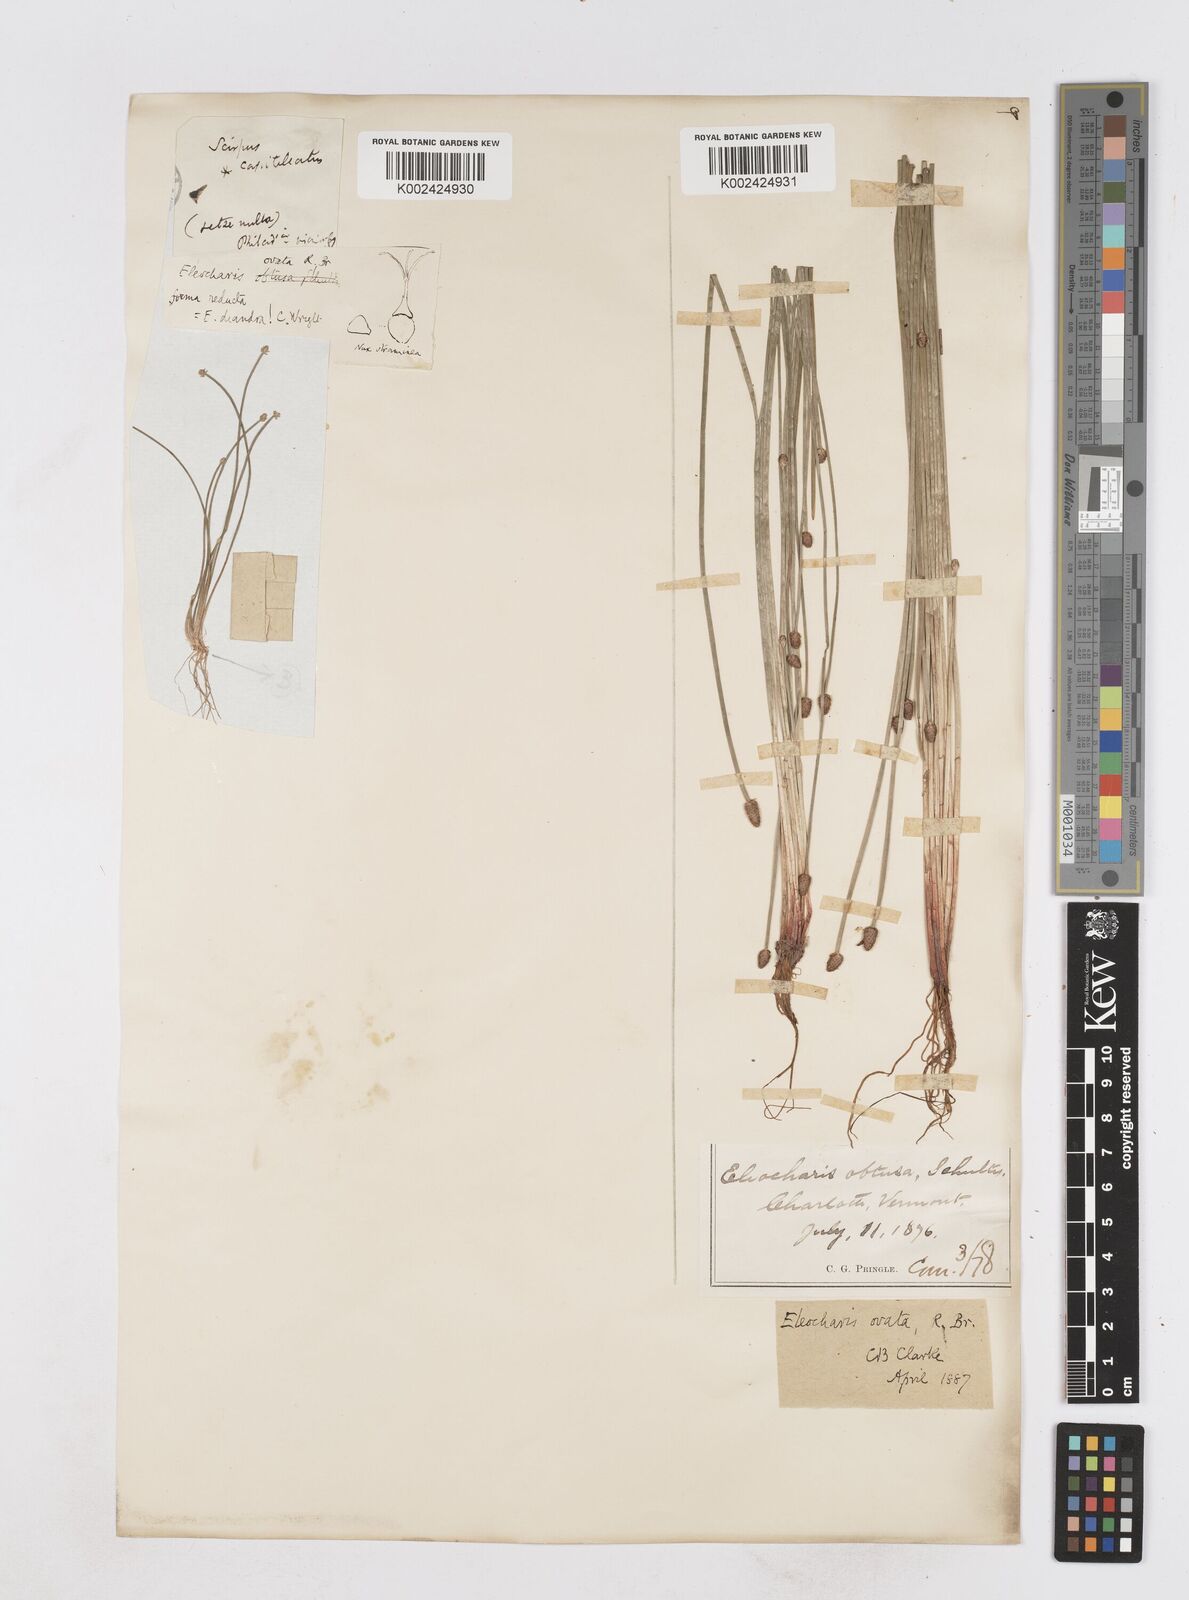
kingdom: Plantae
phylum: Tracheophyta
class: Liliopsida
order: Poales
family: Cyperaceae
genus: Eleocharis
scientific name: Eleocharis ovata
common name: Oval spike-rush
